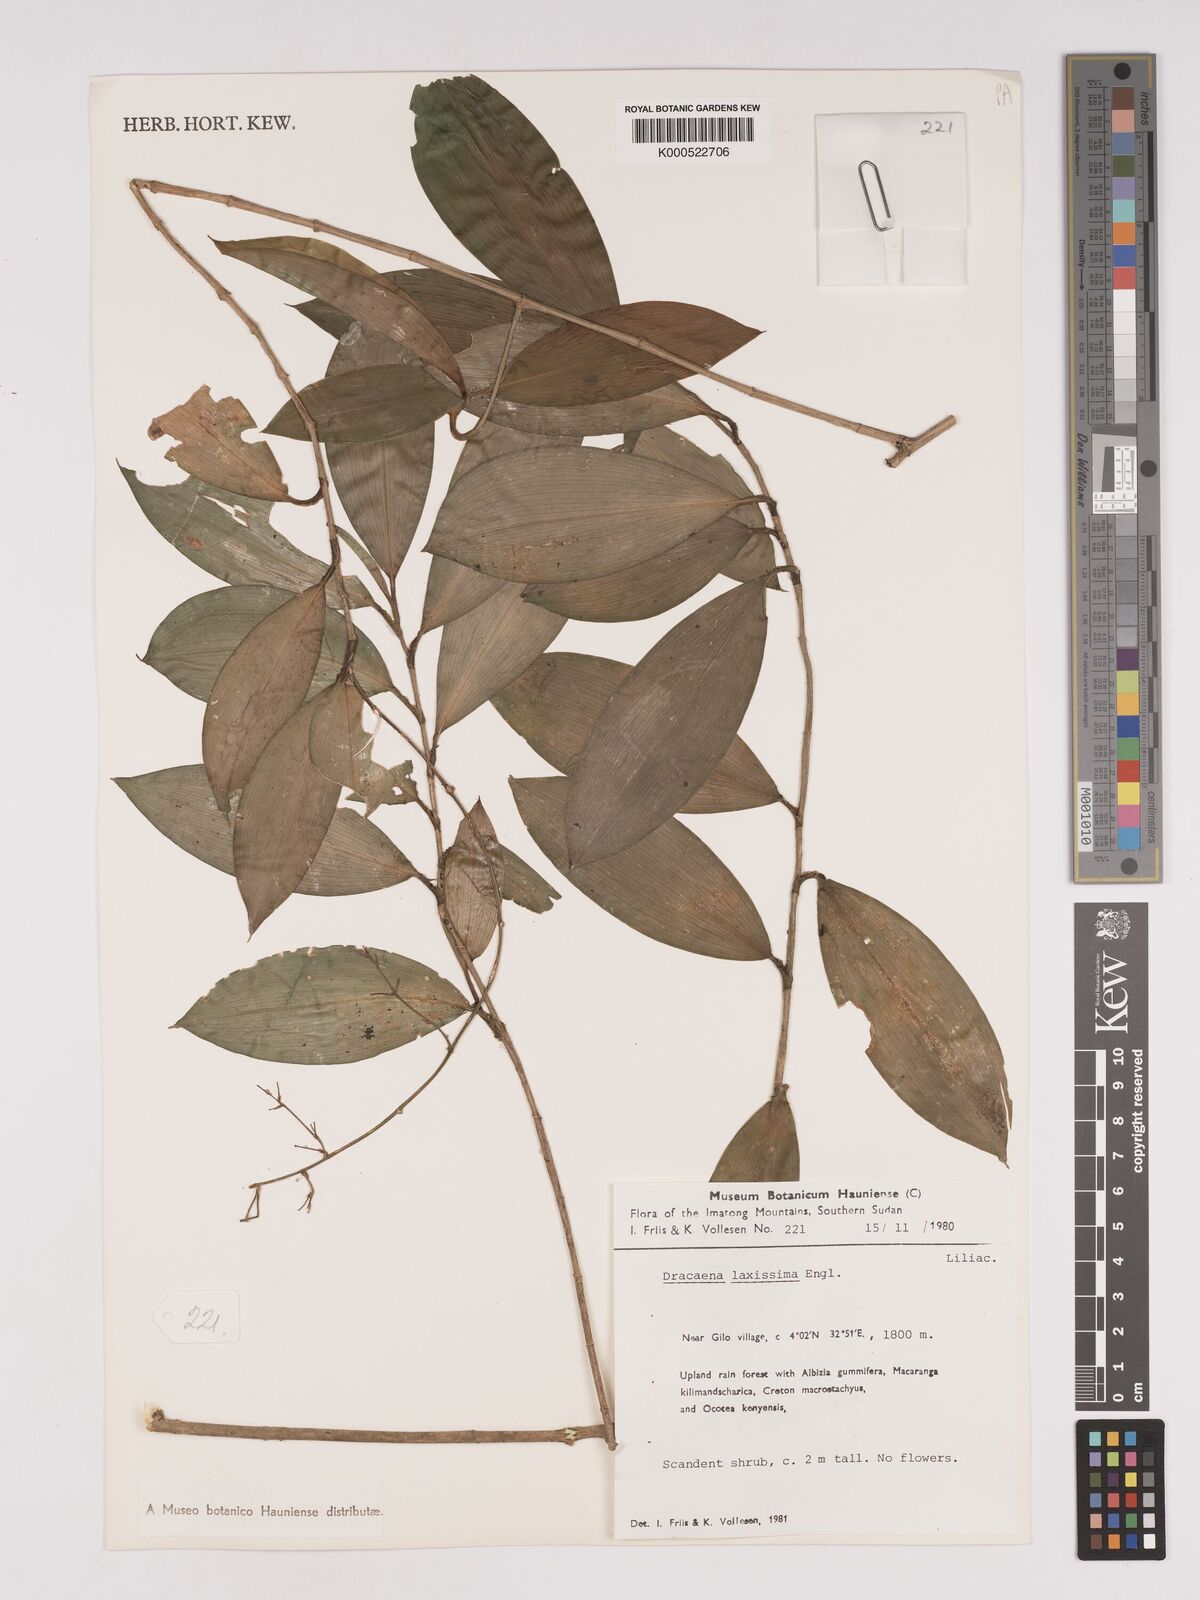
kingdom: Plantae
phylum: Tracheophyta
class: Liliopsida
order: Asparagales
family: Asparagaceae
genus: Dracaena
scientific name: Dracaena laxissima
